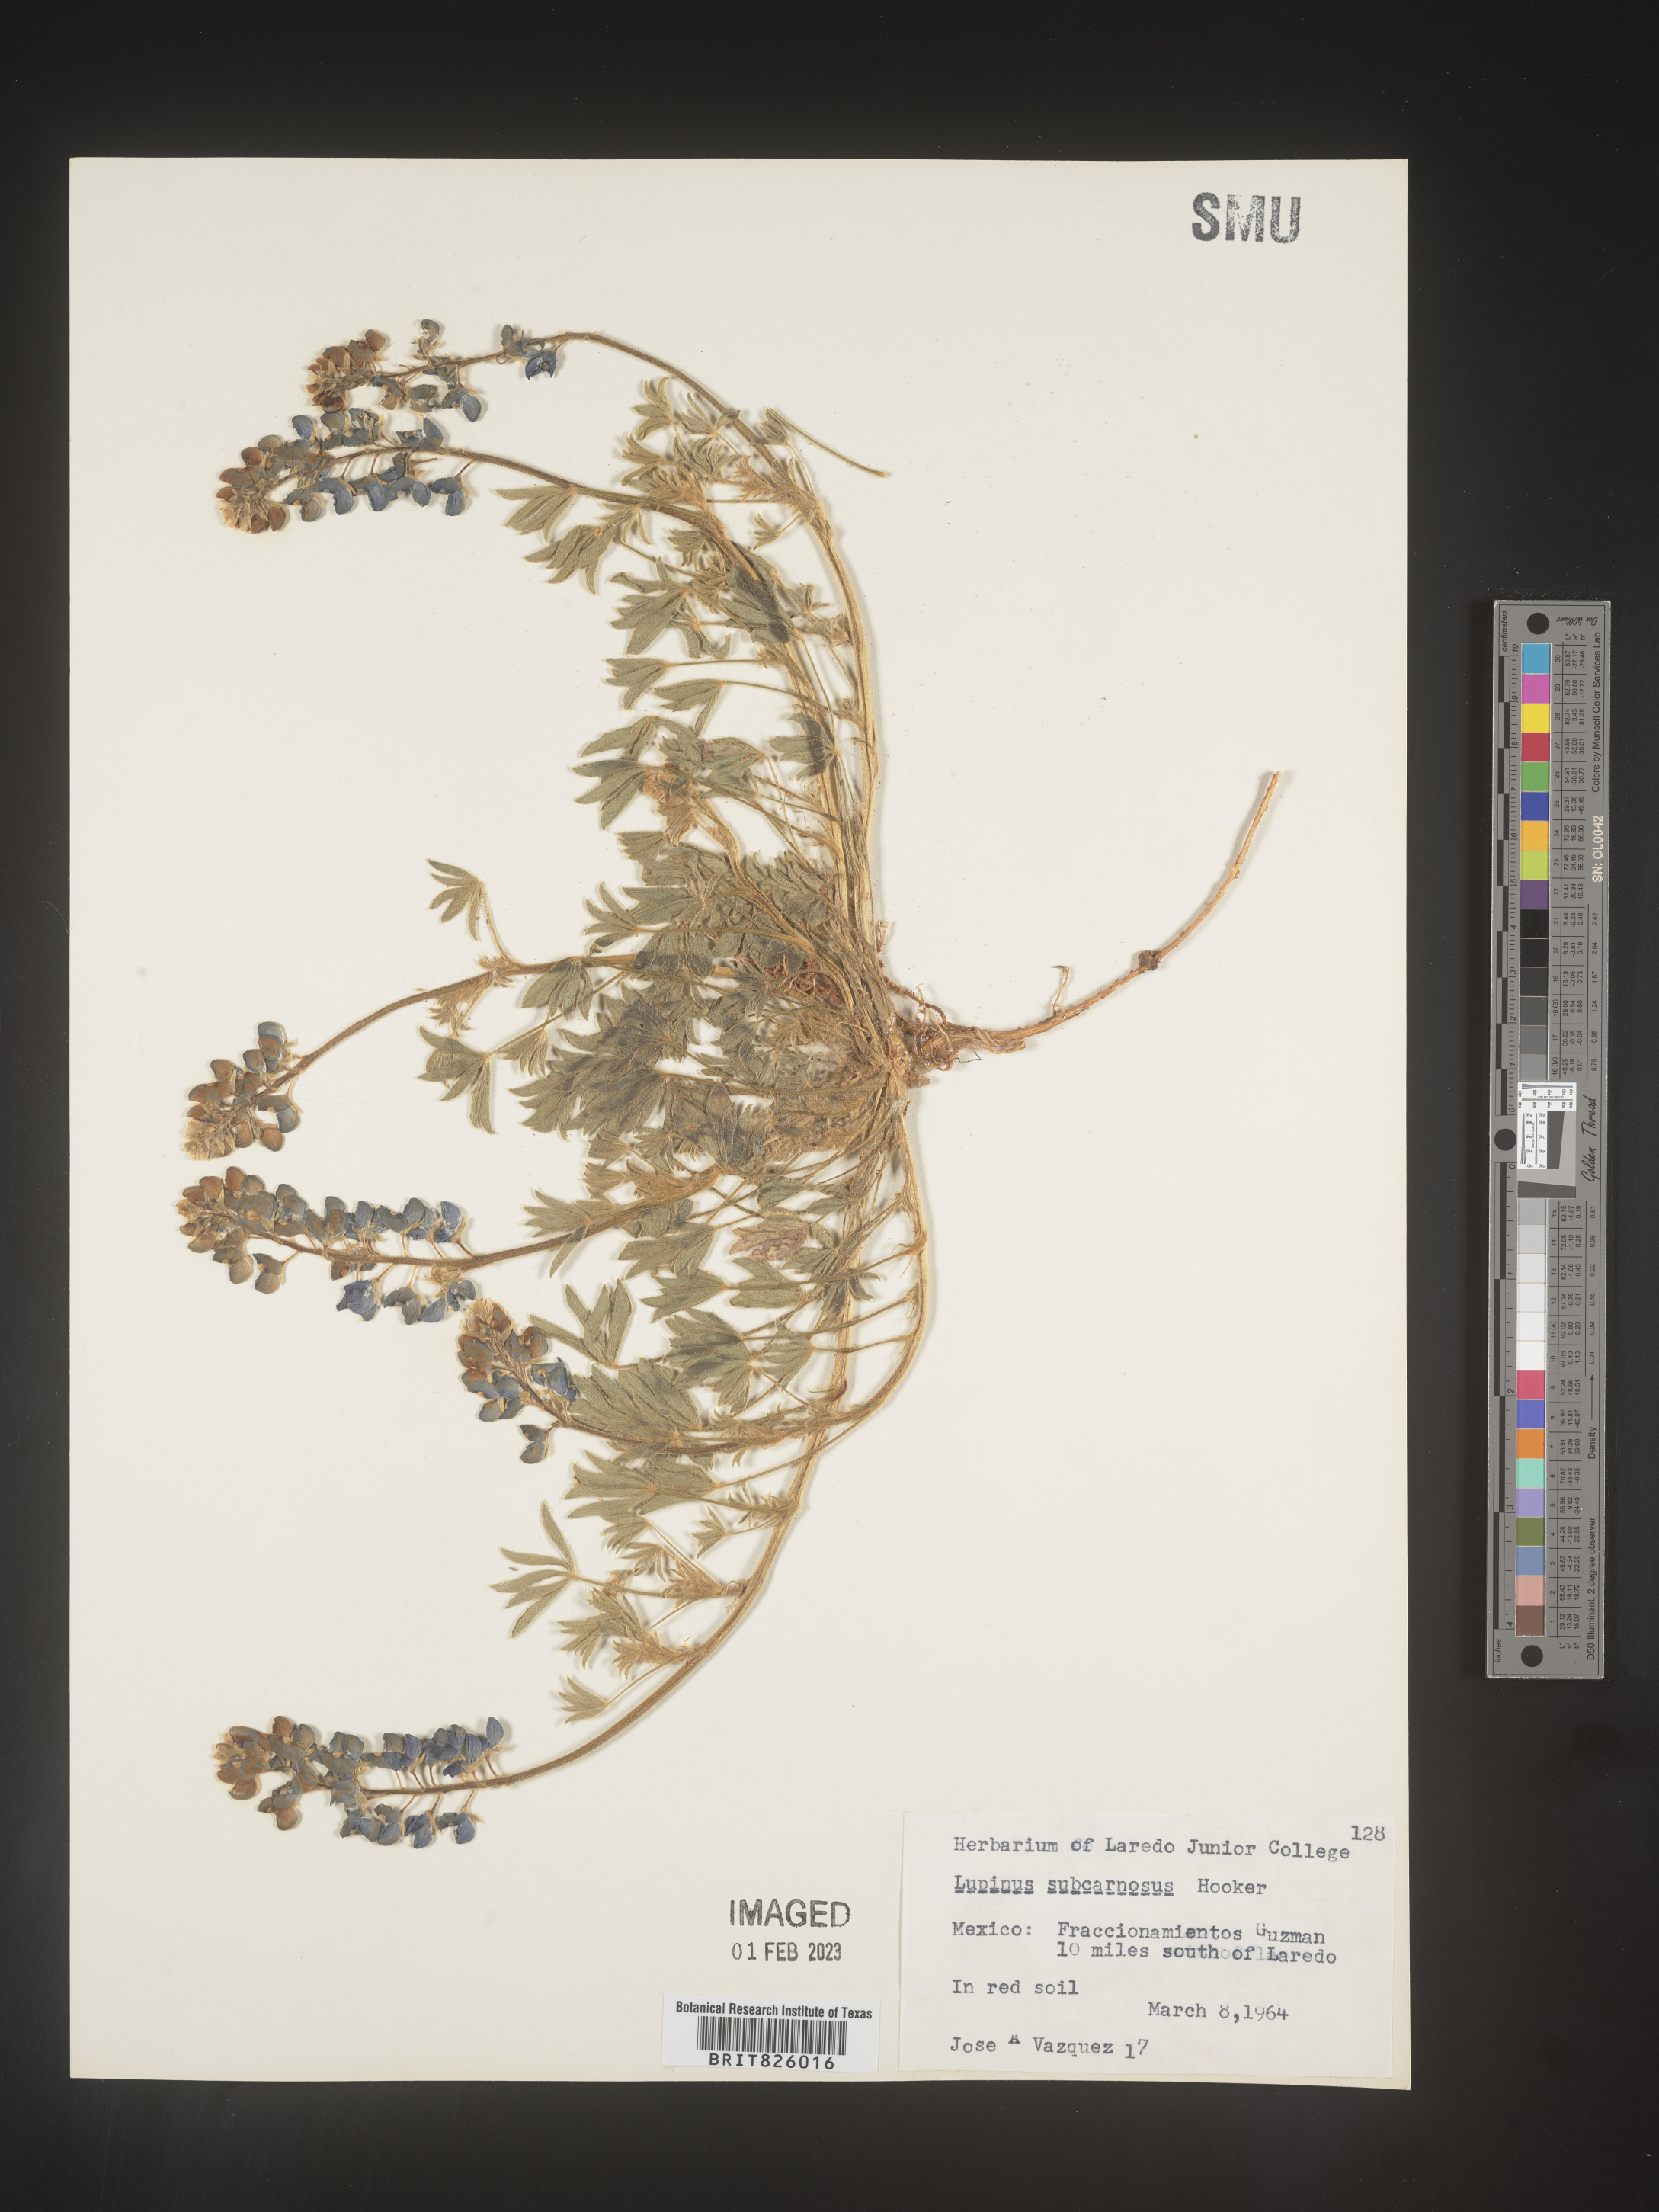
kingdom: Plantae
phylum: Tracheophyta
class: Magnoliopsida
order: Fabales
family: Fabaceae
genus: Lupinus
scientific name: Lupinus
